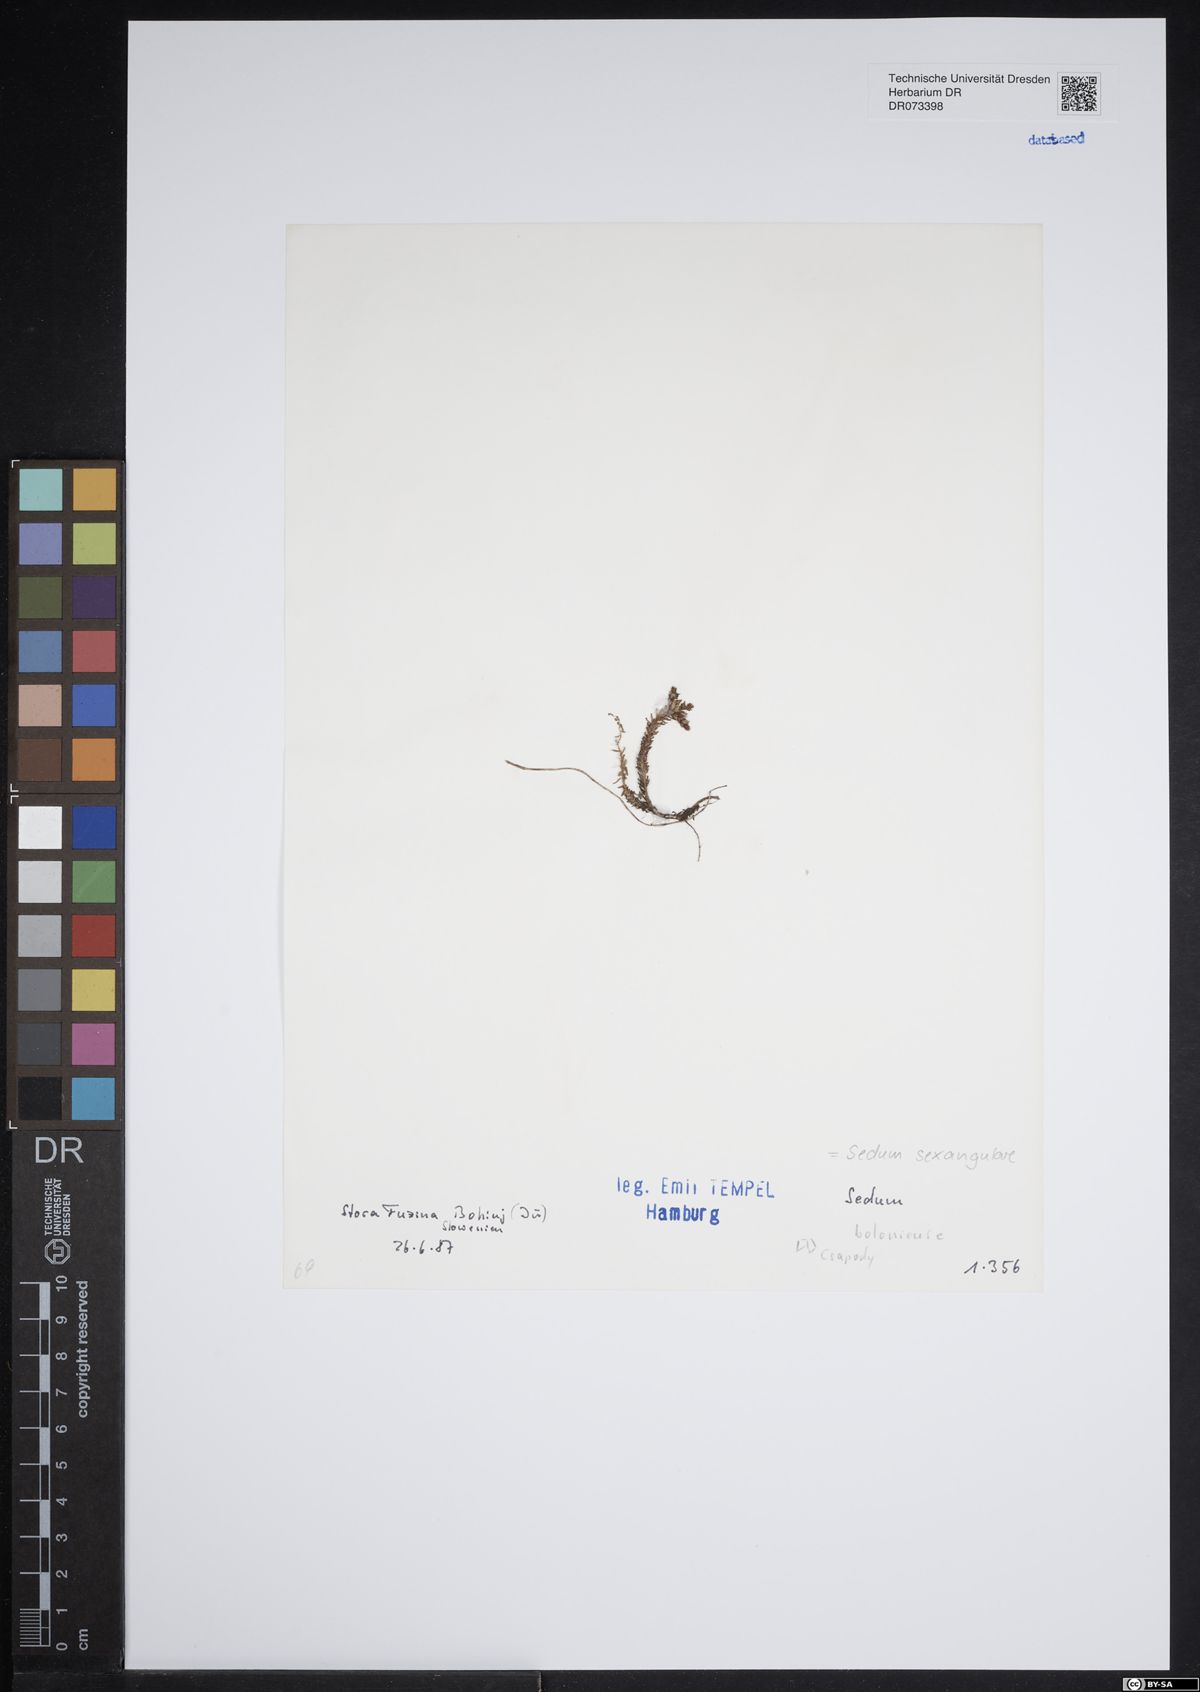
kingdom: Plantae
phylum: Tracheophyta
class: Magnoliopsida
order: Saxifragales
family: Crassulaceae
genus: Sedum
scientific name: Sedum sexangulare
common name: Tasteless stonecrop
